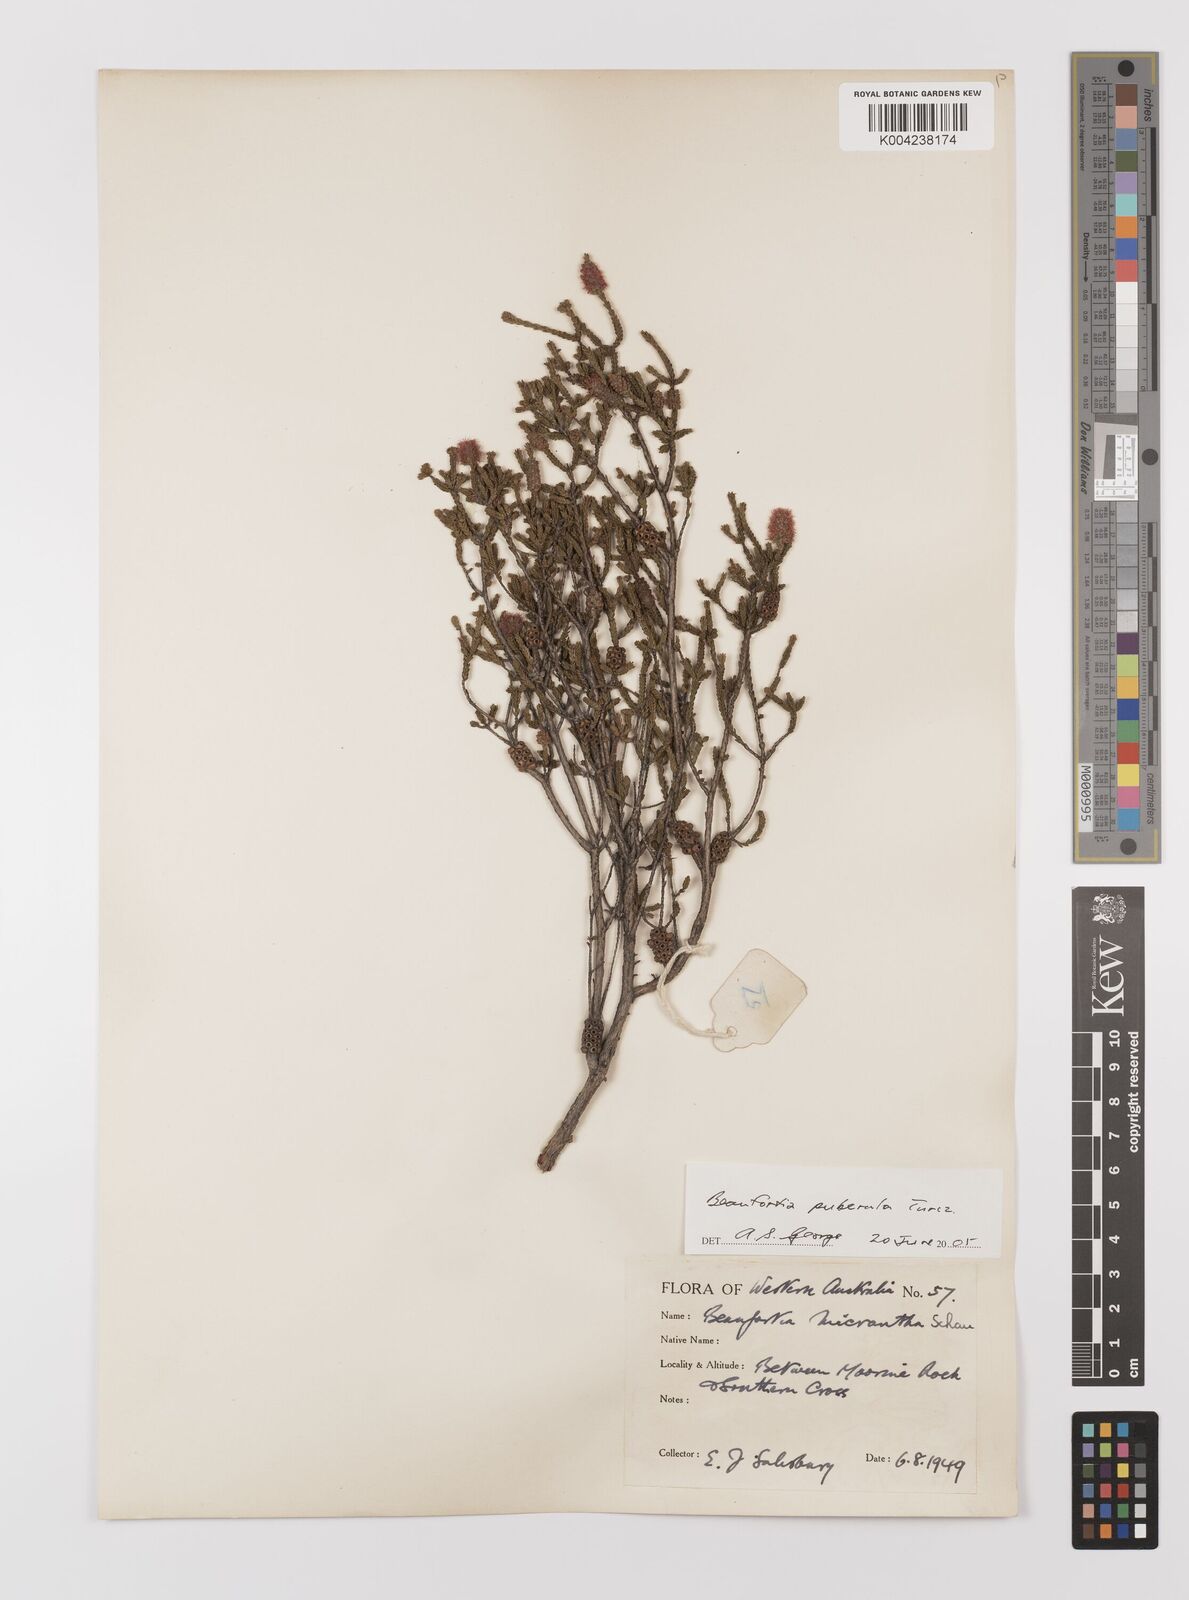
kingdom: Plantae
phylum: Tracheophyta
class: Magnoliopsida
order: Myrtales
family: Myrtaceae
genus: Melaleuca
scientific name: Melaleuca micrantha
